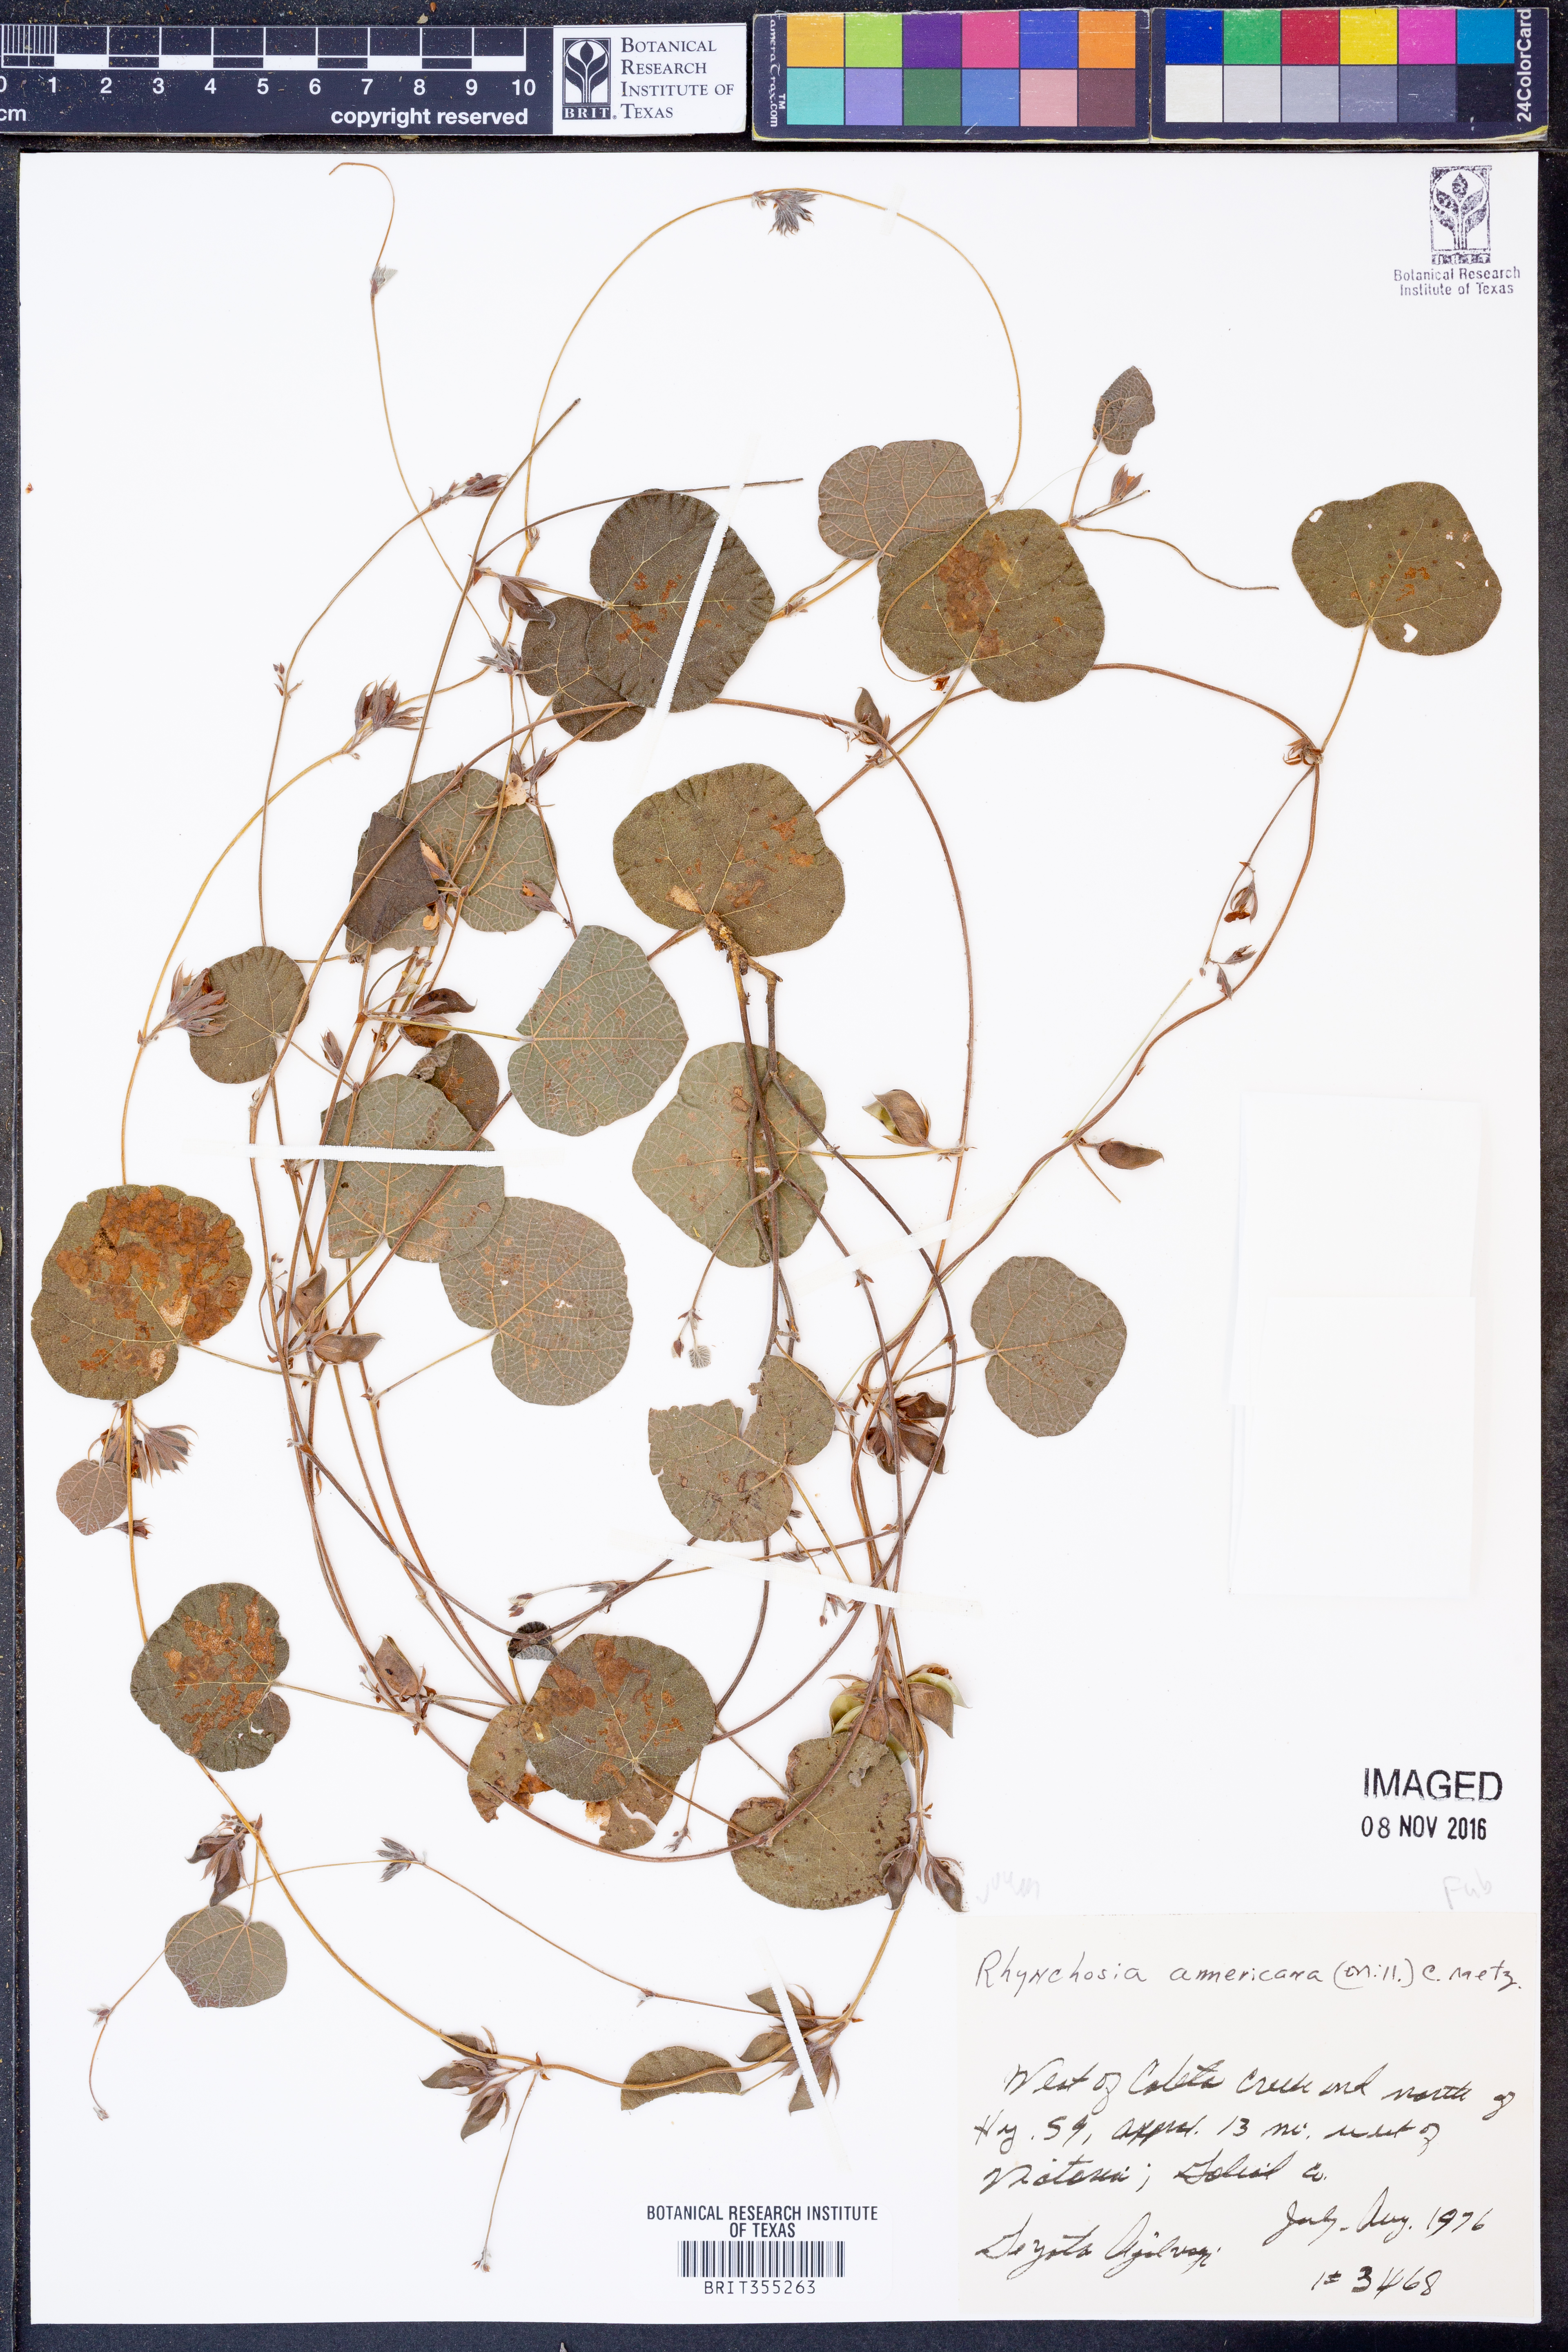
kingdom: Plantae
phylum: Tracheophyta
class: Magnoliopsida
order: Fabales
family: Fabaceae
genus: Rhynchosia
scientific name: Rhynchosia americana
